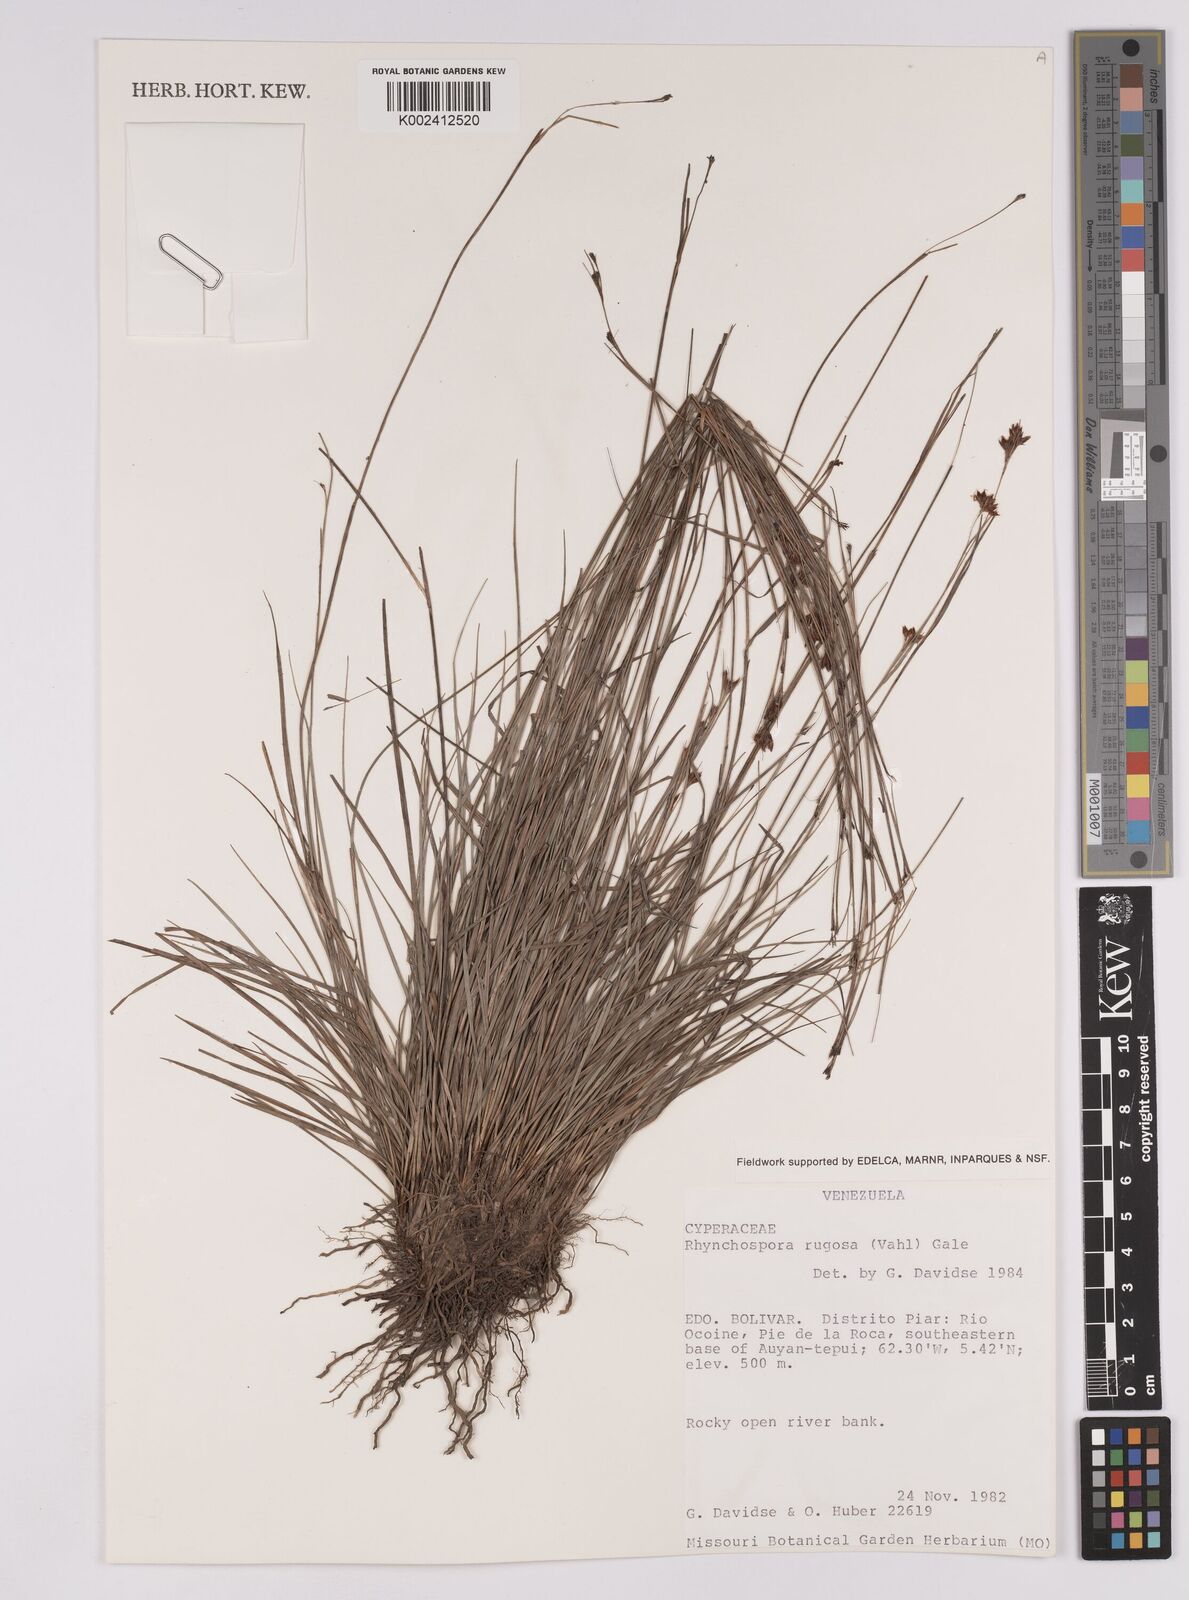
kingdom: Plantae
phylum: Tracheophyta
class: Liliopsida
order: Poales
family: Cyperaceae
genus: Rhynchospora
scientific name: Rhynchospora rugosa
